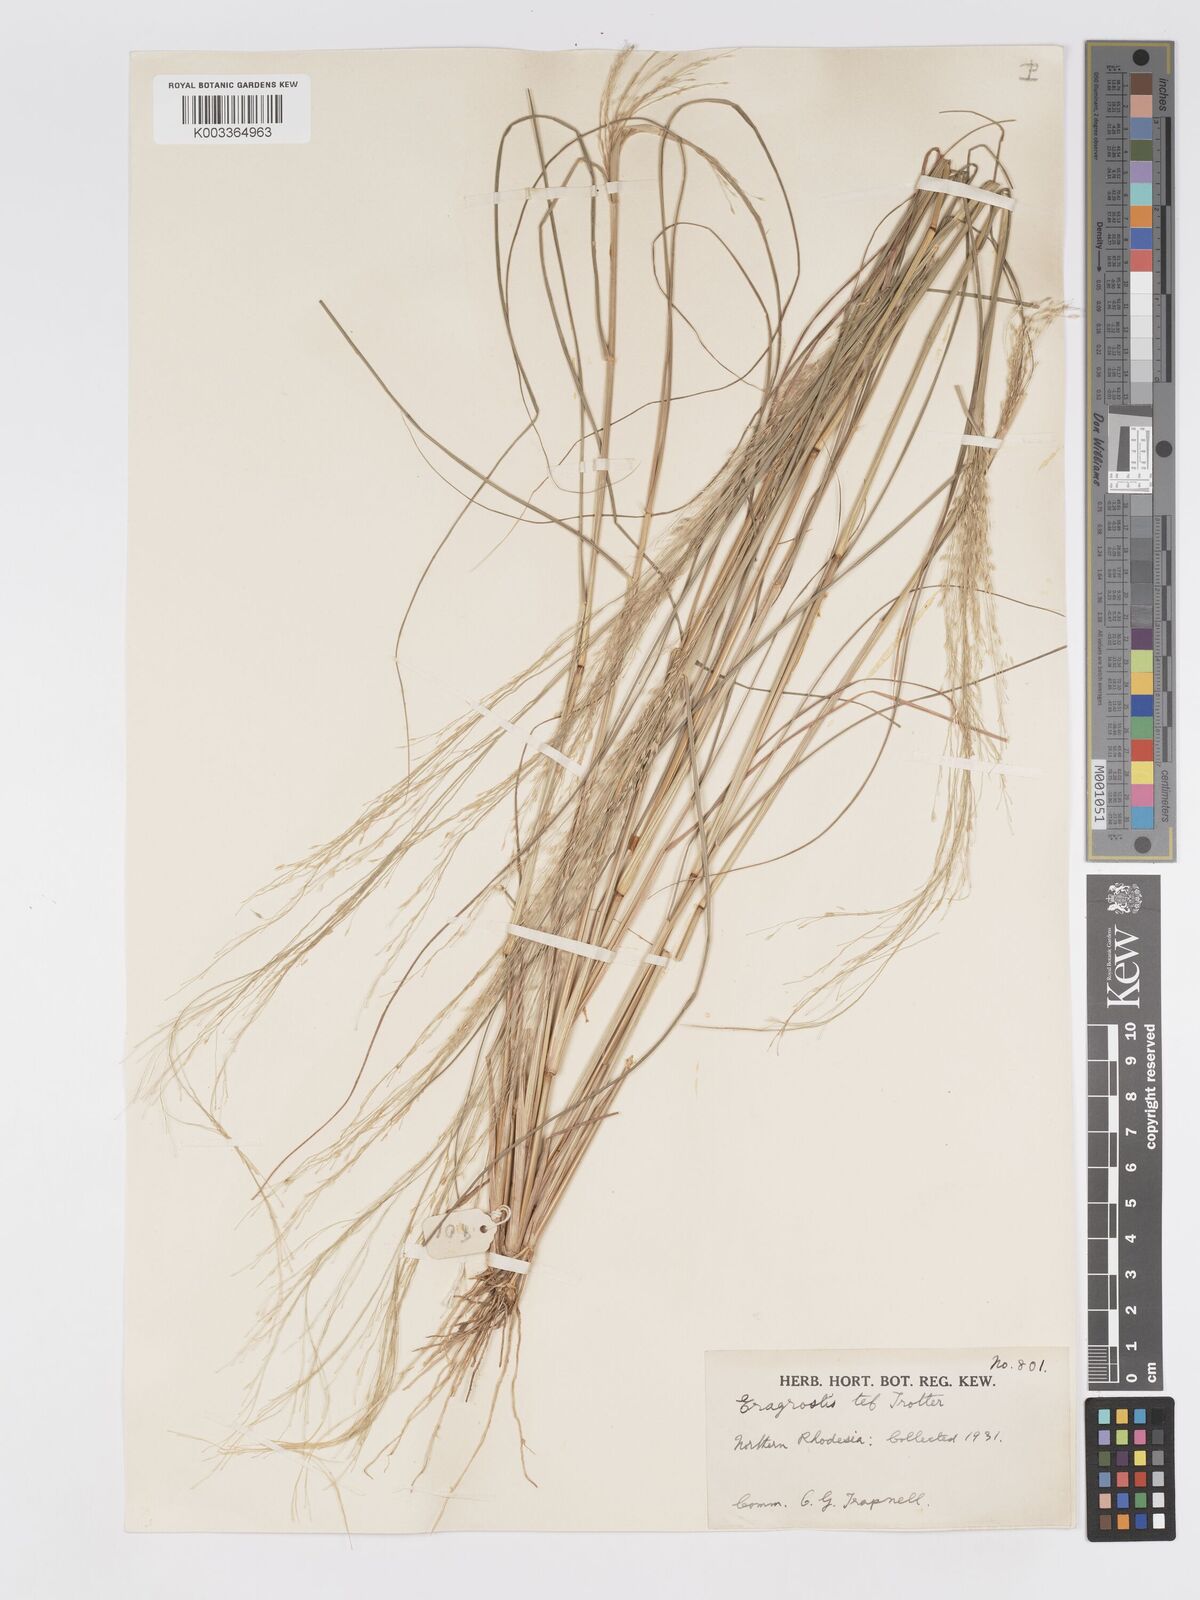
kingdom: Plantae
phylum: Tracheophyta
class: Liliopsida
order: Poales
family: Poaceae
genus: Eragrostis
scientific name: Eragrostis tef
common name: Teff
